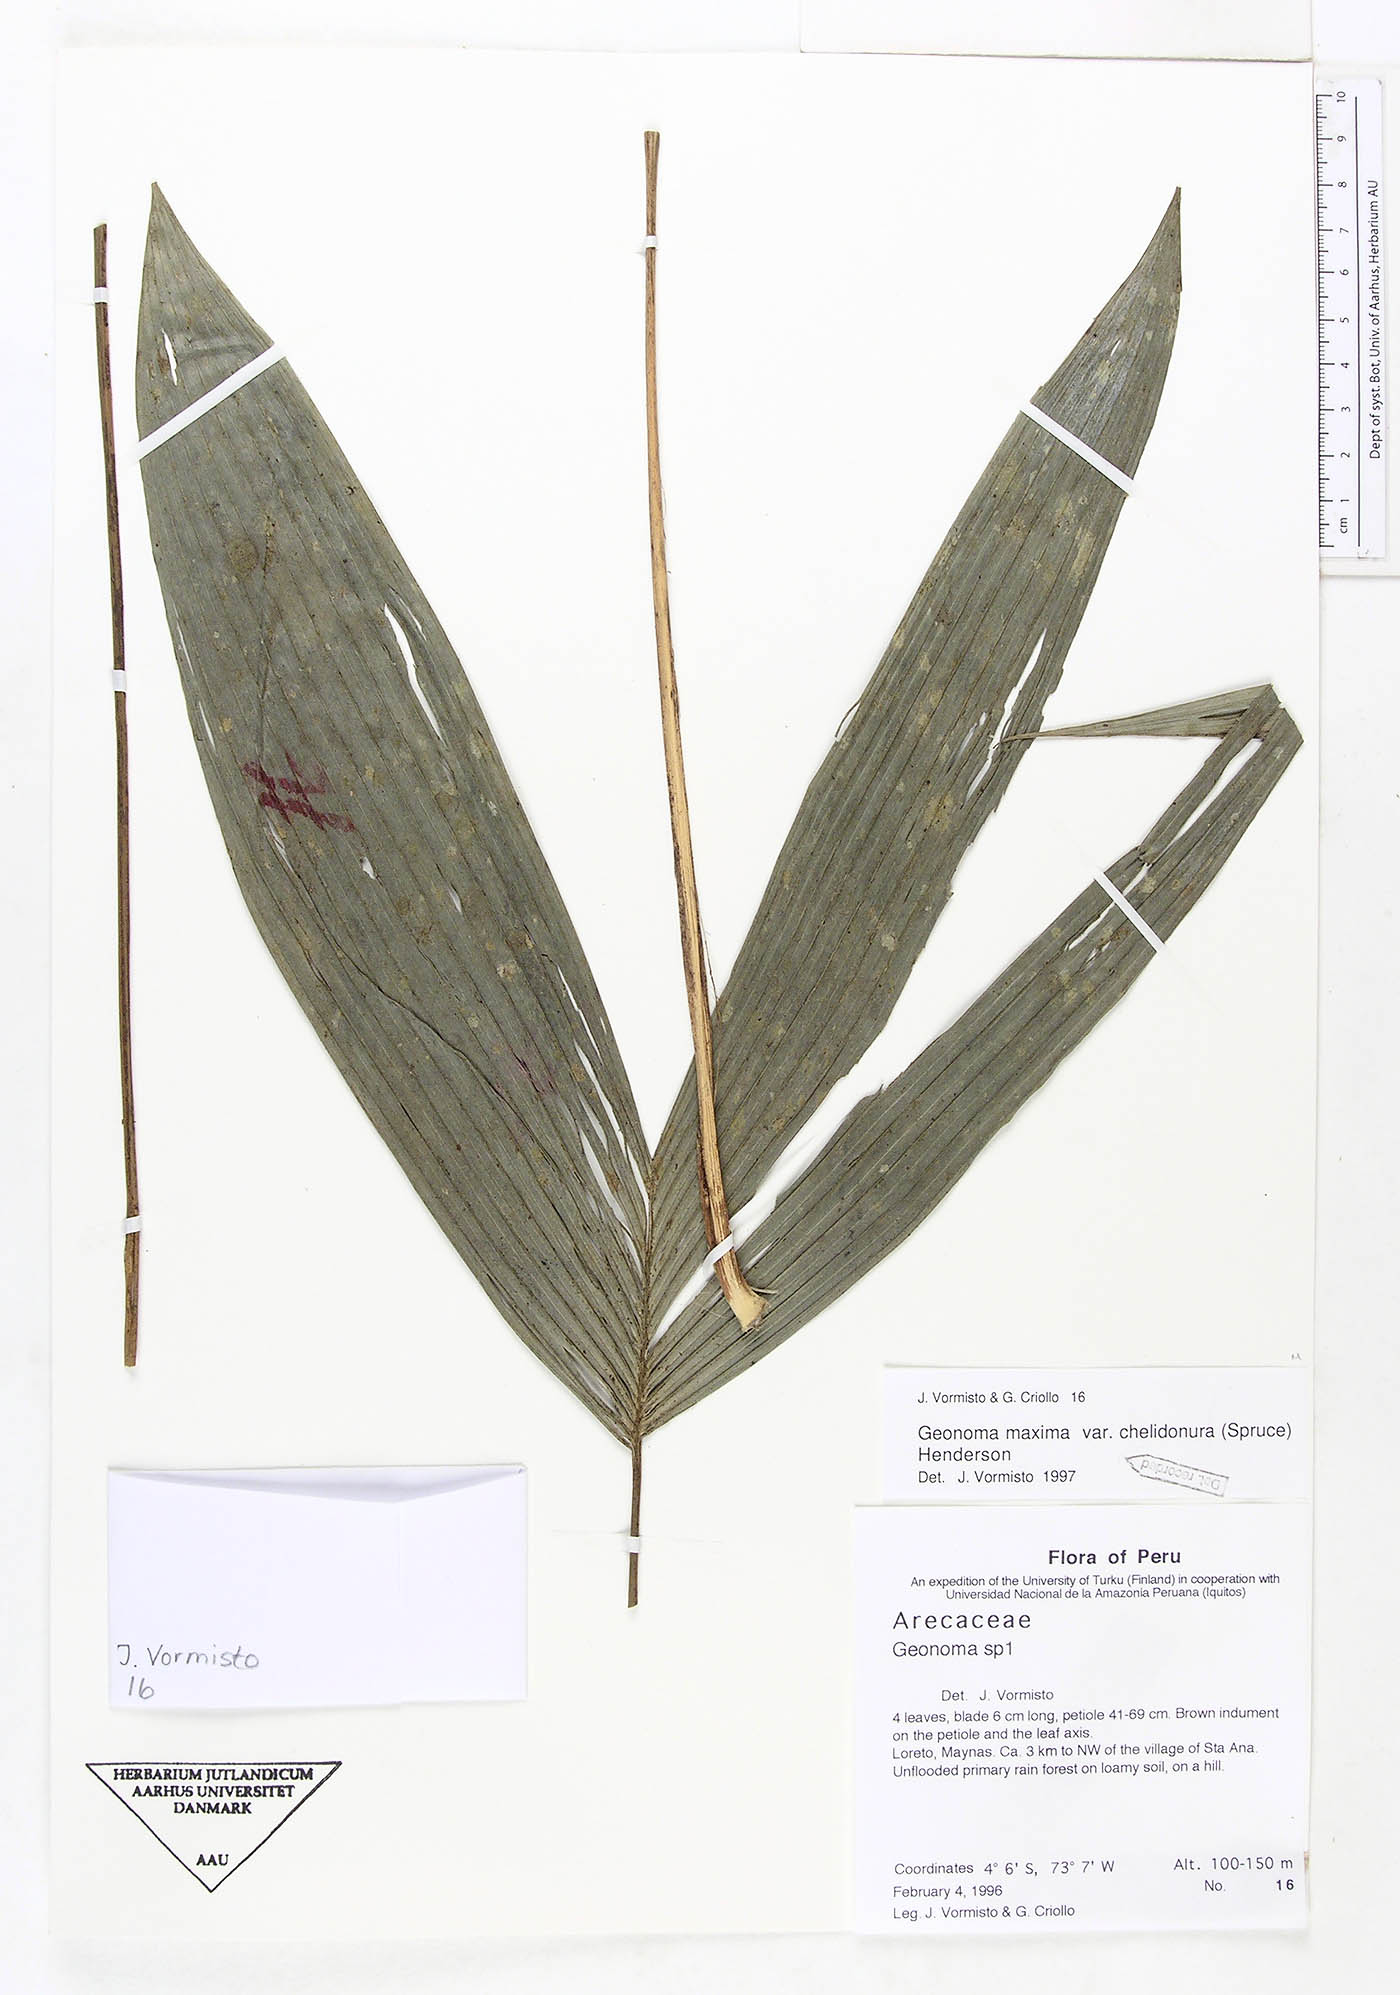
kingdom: Plantae
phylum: Tracheophyta
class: Liliopsida
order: Arecales
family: Arecaceae
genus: Geonoma
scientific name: Geonoma maxima
